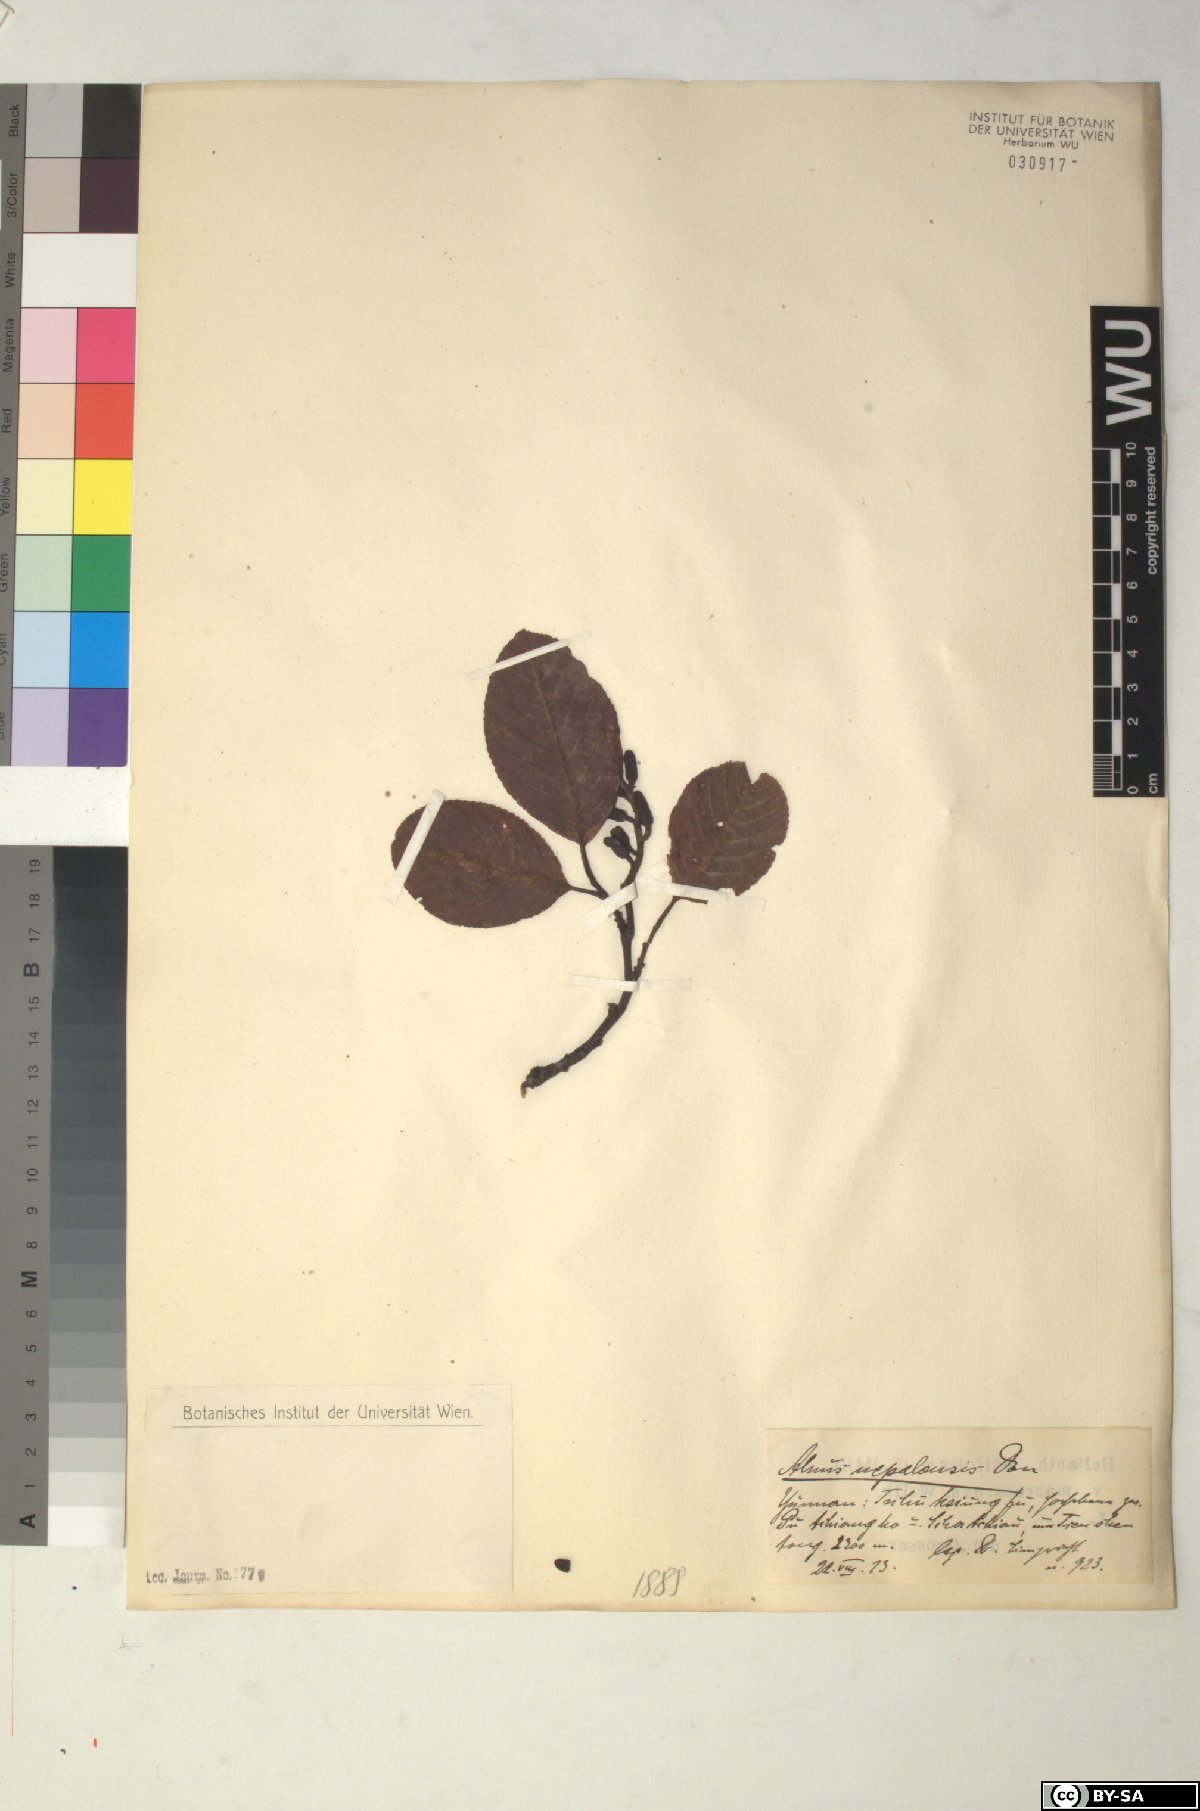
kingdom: Plantae
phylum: Tracheophyta
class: Magnoliopsida
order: Fagales
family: Betulaceae
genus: Alnus
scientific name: Alnus nepalensis
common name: Nepal alder
